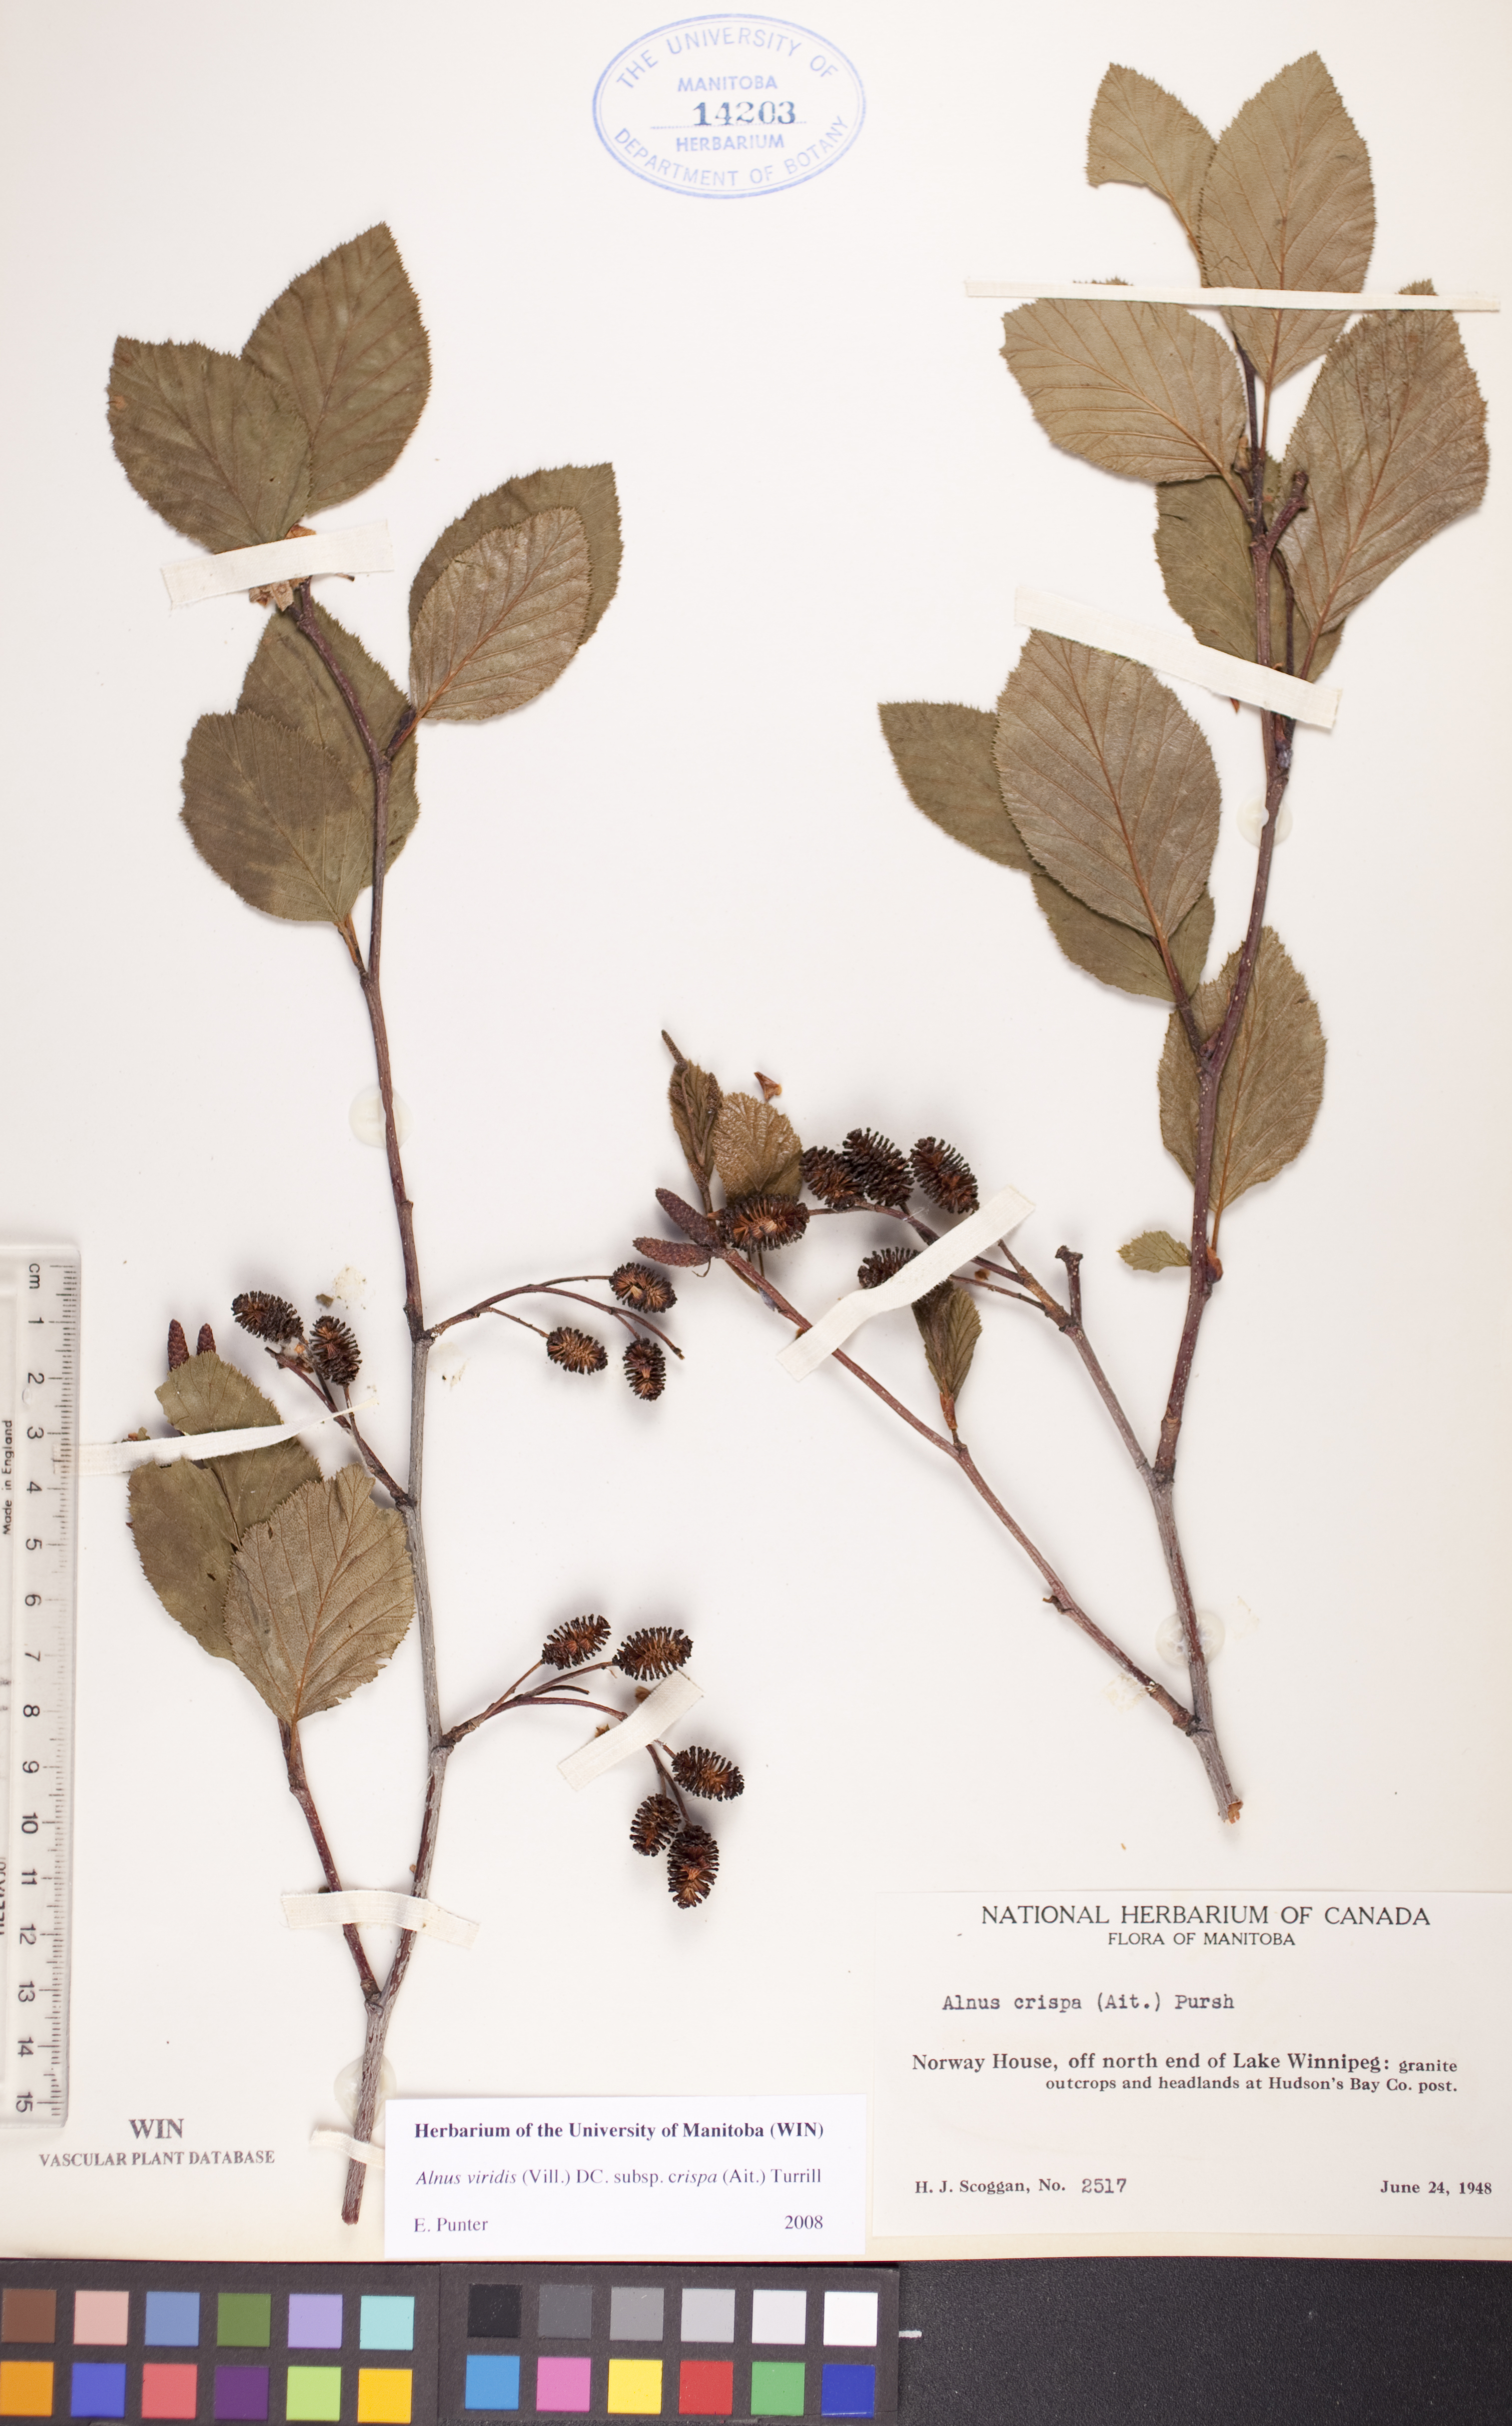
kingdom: Plantae
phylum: Tracheophyta
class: Magnoliopsida
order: Fagales
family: Betulaceae
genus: Alnus
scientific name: Alnus alnobetula
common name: Green alder
